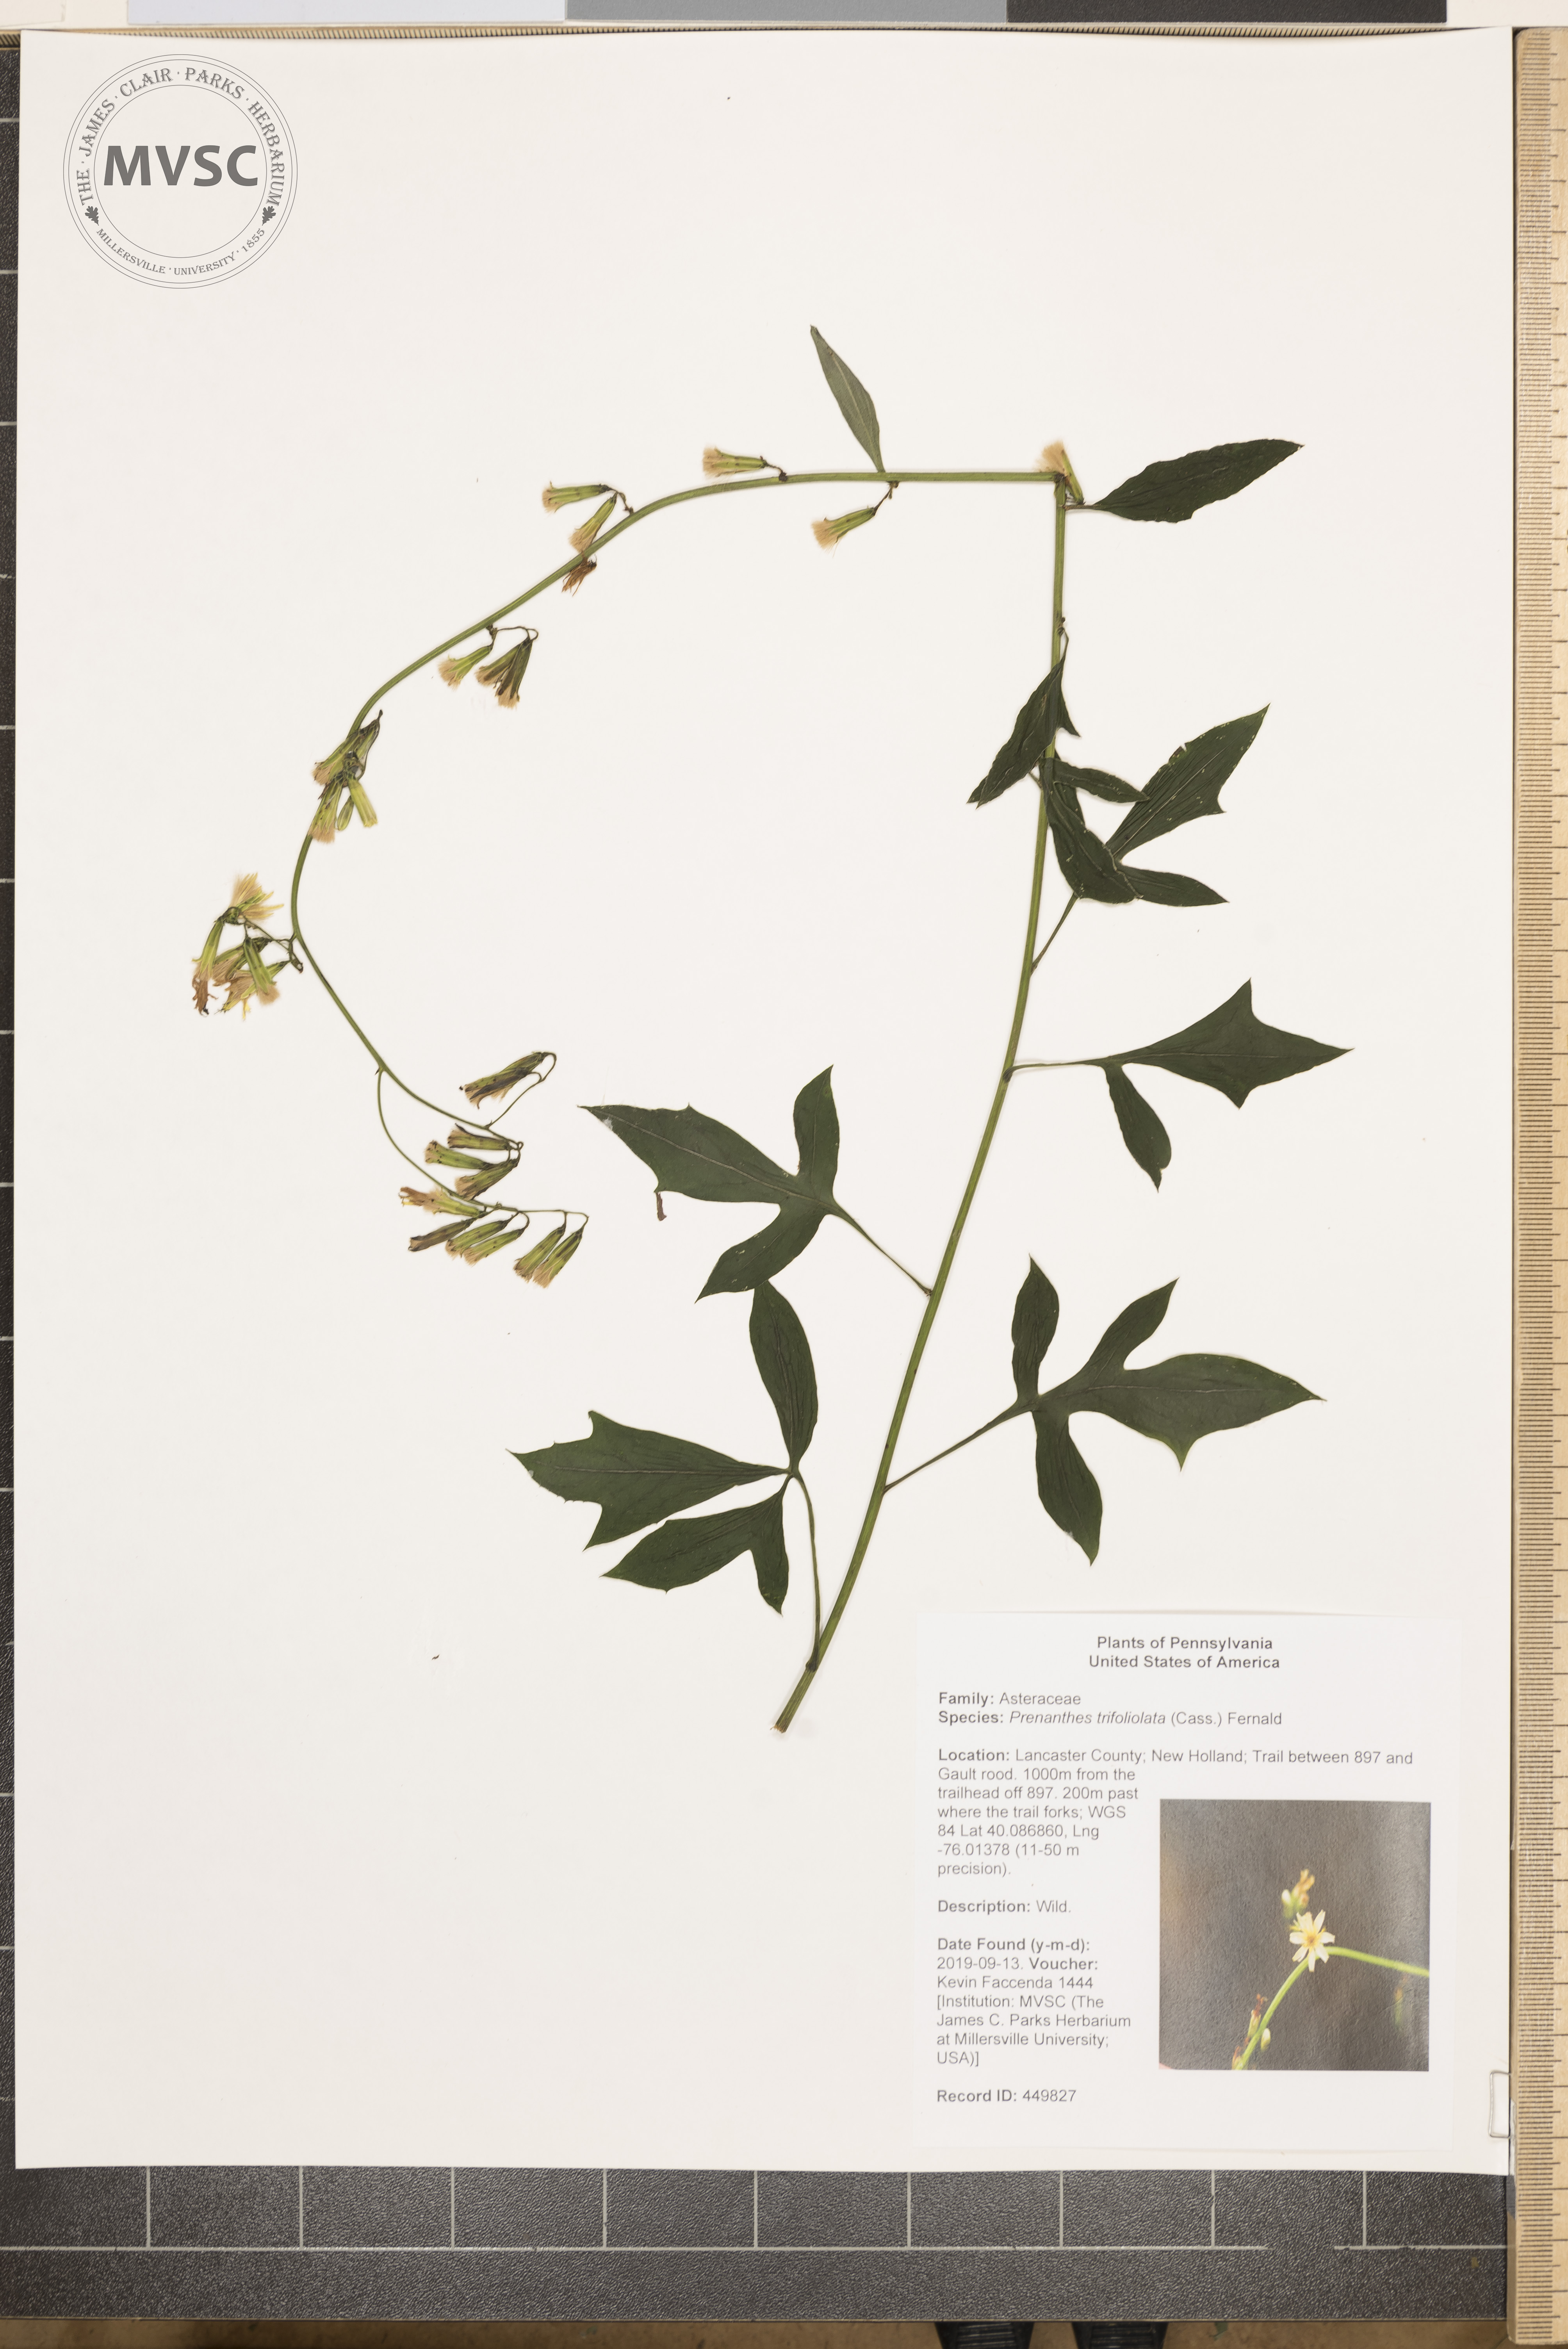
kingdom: Plantae
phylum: Tracheophyta
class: Magnoliopsida
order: Asterales
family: Asteraceae
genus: Nabalus
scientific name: Nabalus trifoliolatus
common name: three-leaved rattlesnakeroot
